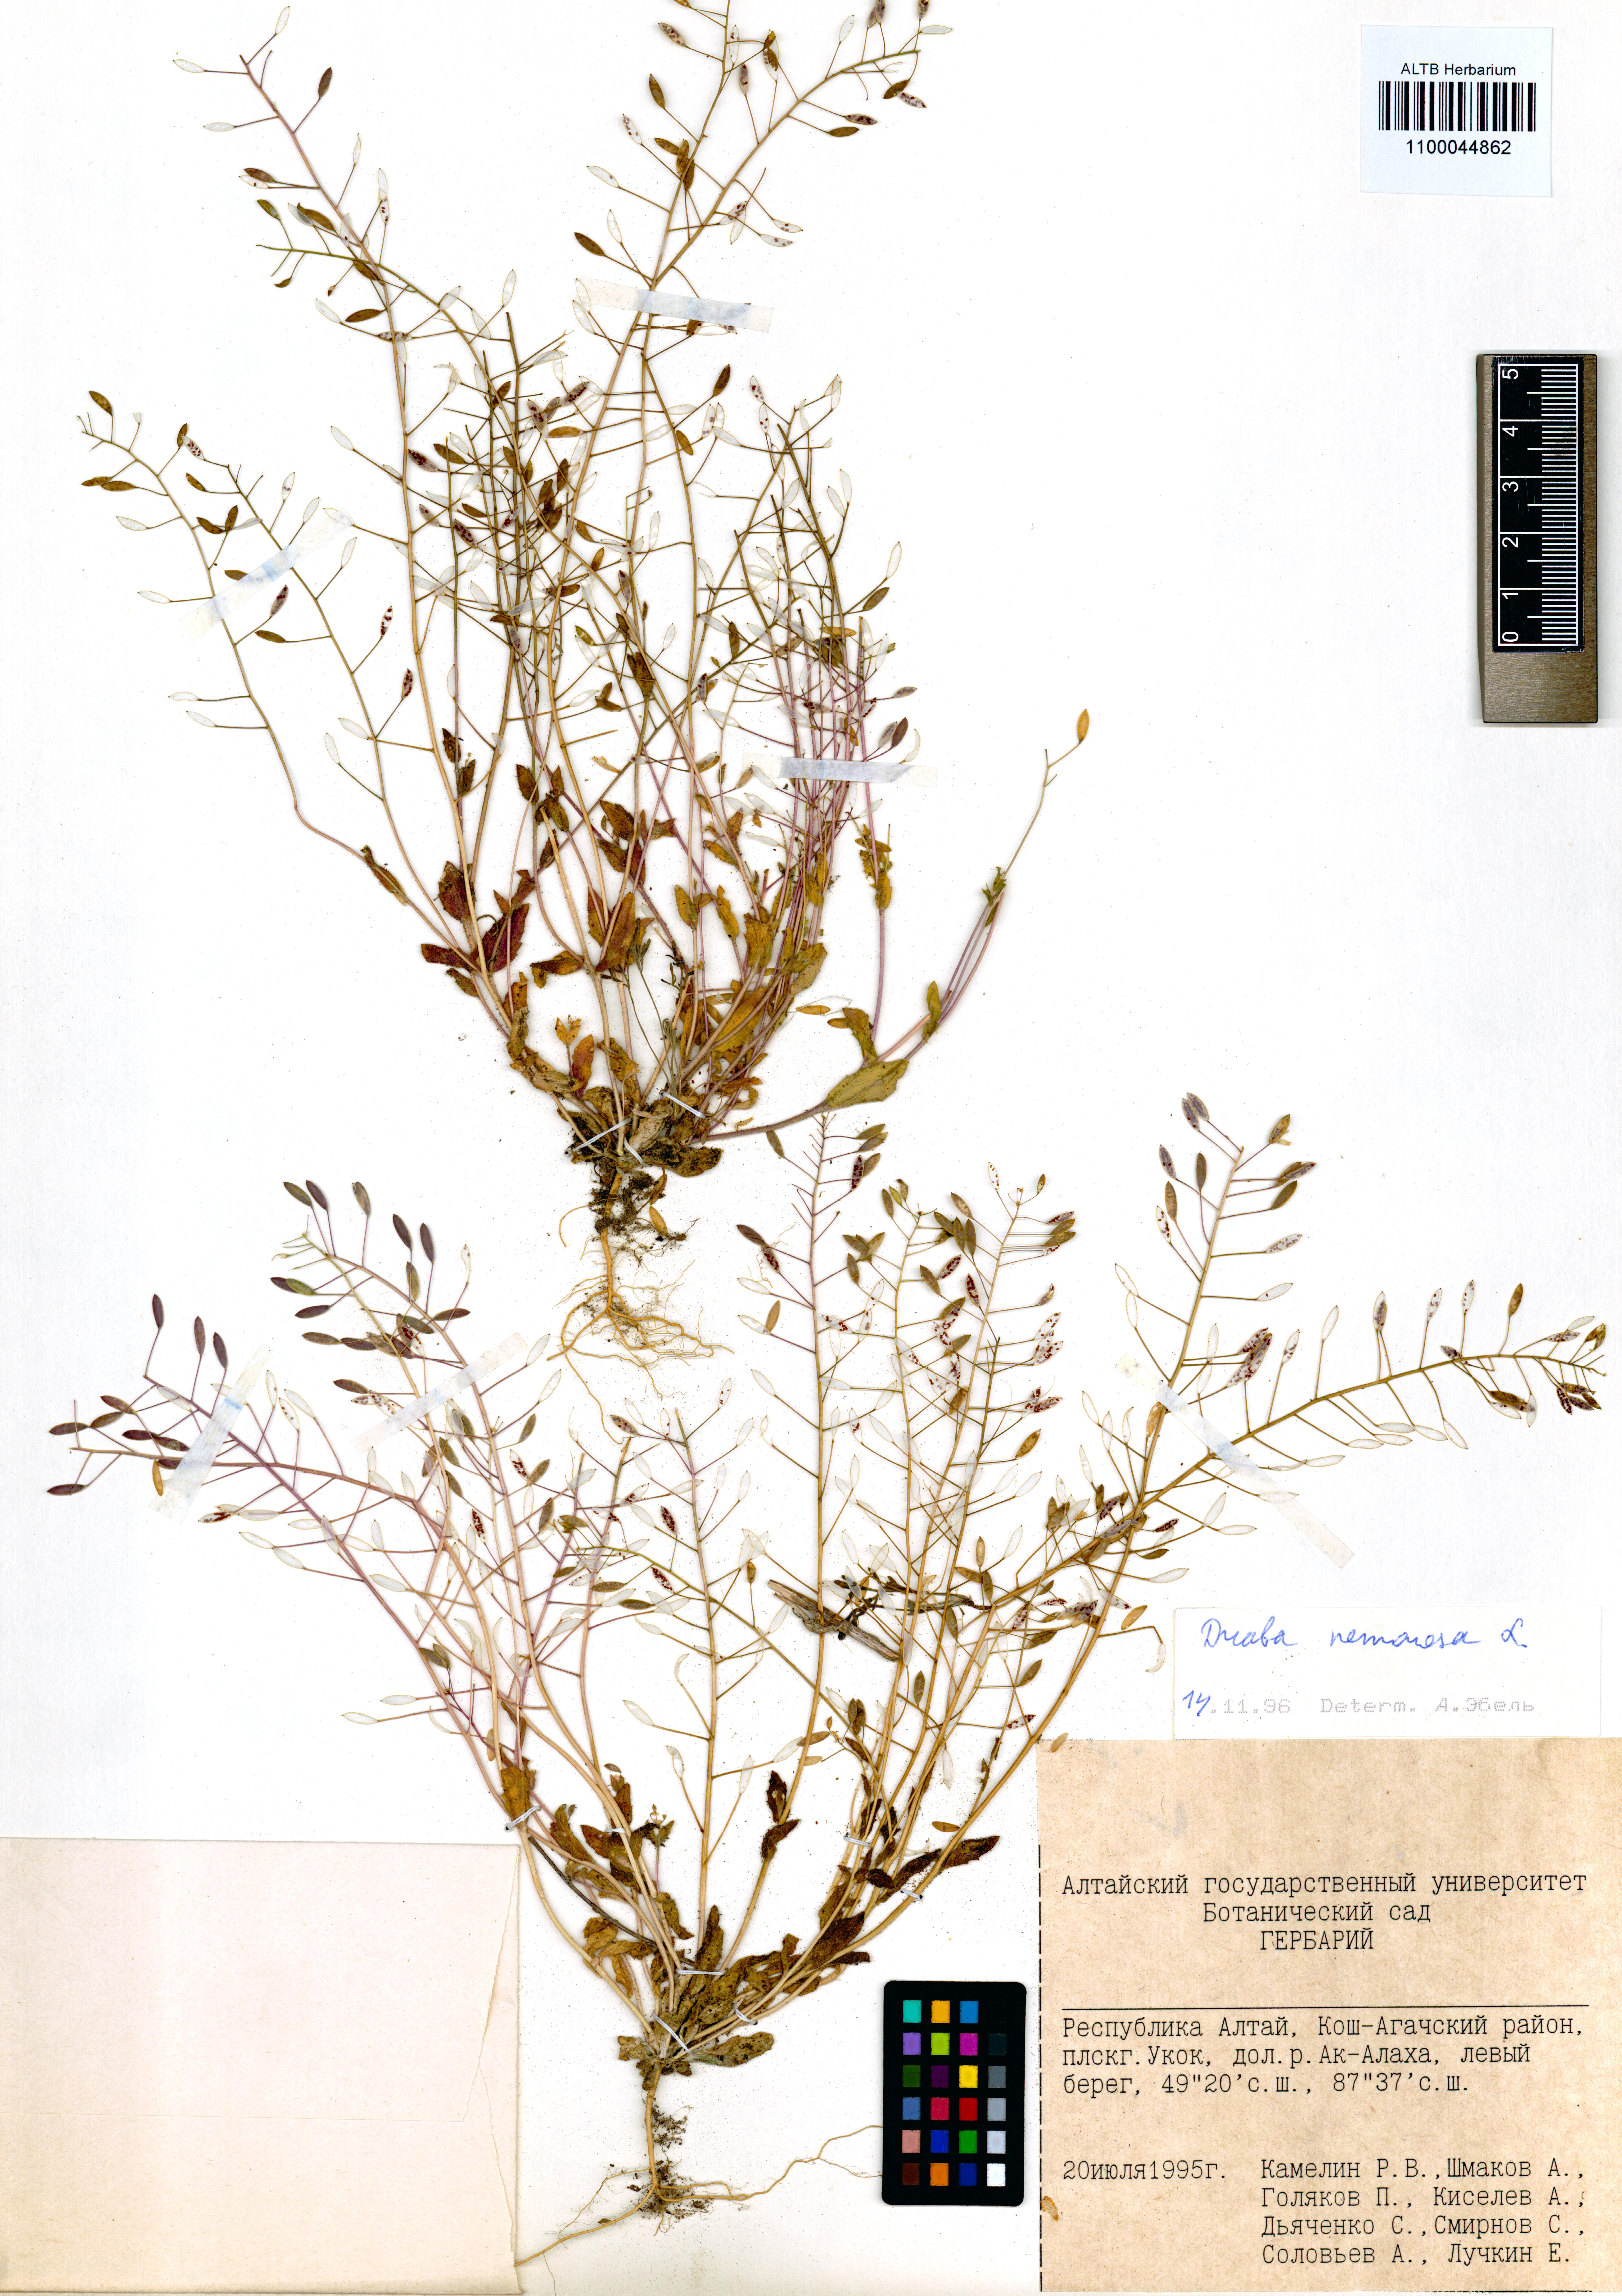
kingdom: Plantae
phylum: Tracheophyta
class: Magnoliopsida
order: Brassicales
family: Brassicaceae
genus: Draba
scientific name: Draba nemorosa
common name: Wood whitlow-grass
